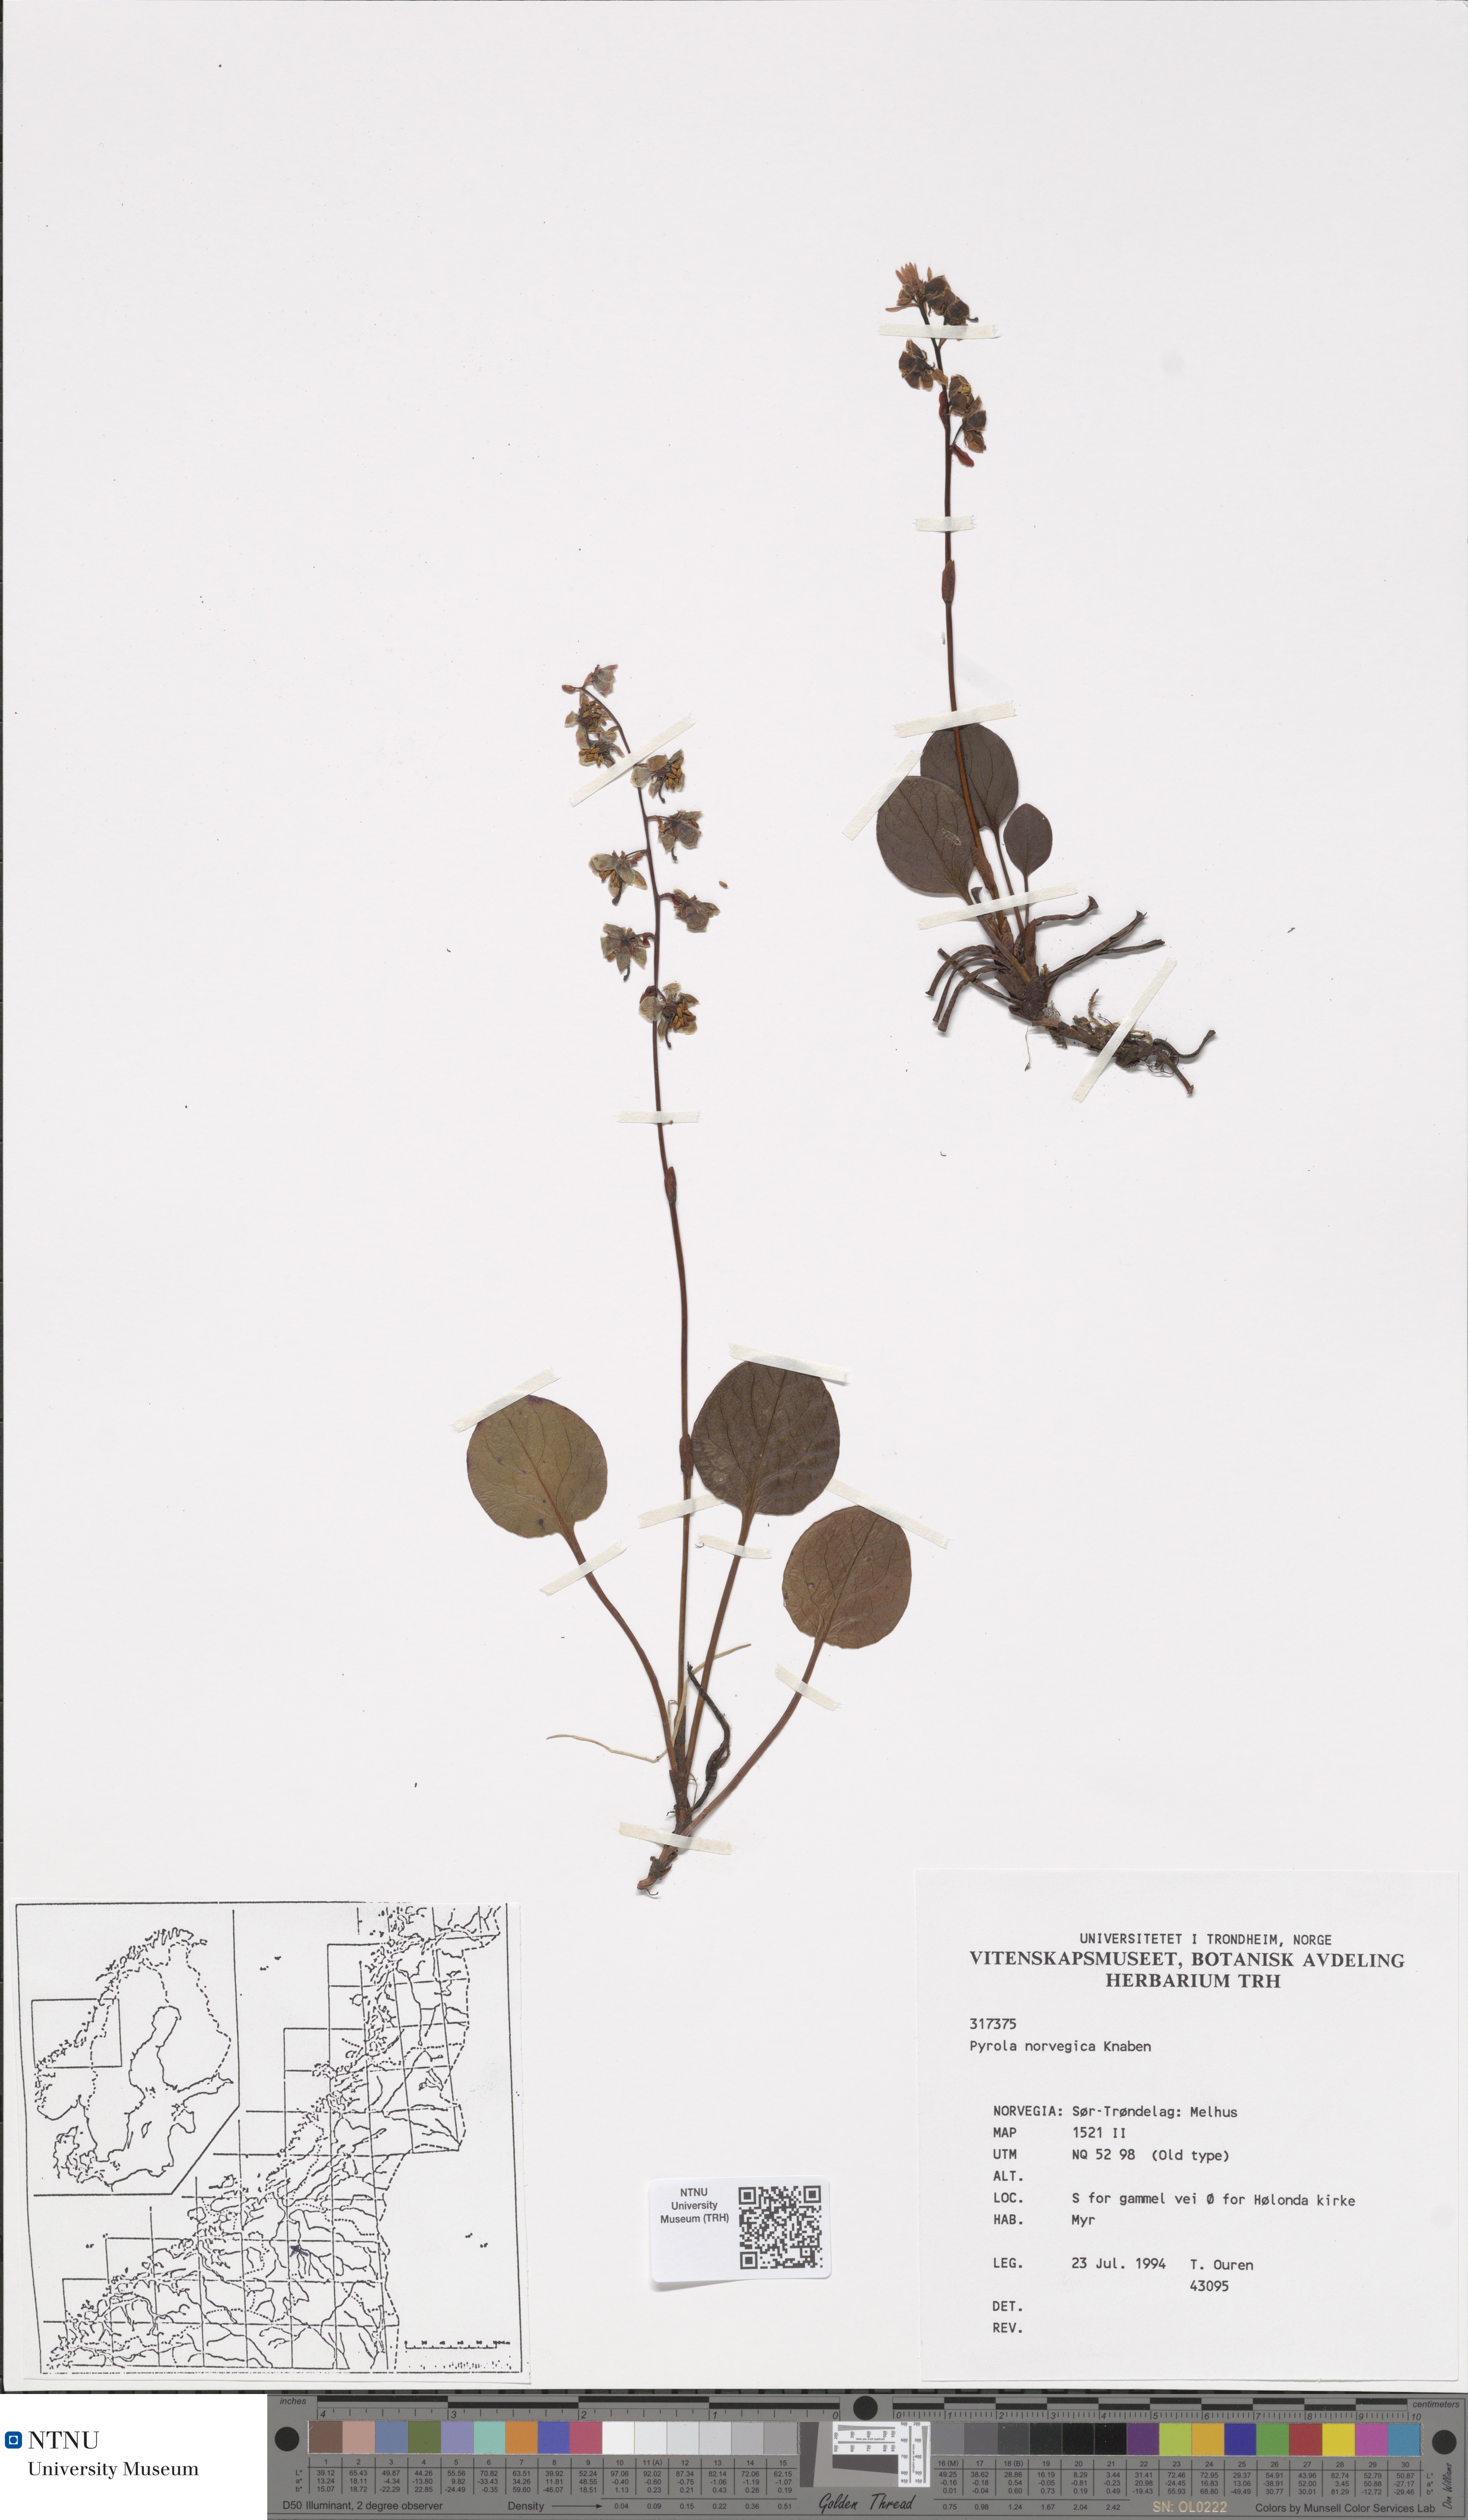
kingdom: Plantae
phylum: Tracheophyta
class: Magnoliopsida
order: Ericales
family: Ericaceae
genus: Pyrola
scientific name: Pyrola rotundifolia
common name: Round-leaved wintergreen
